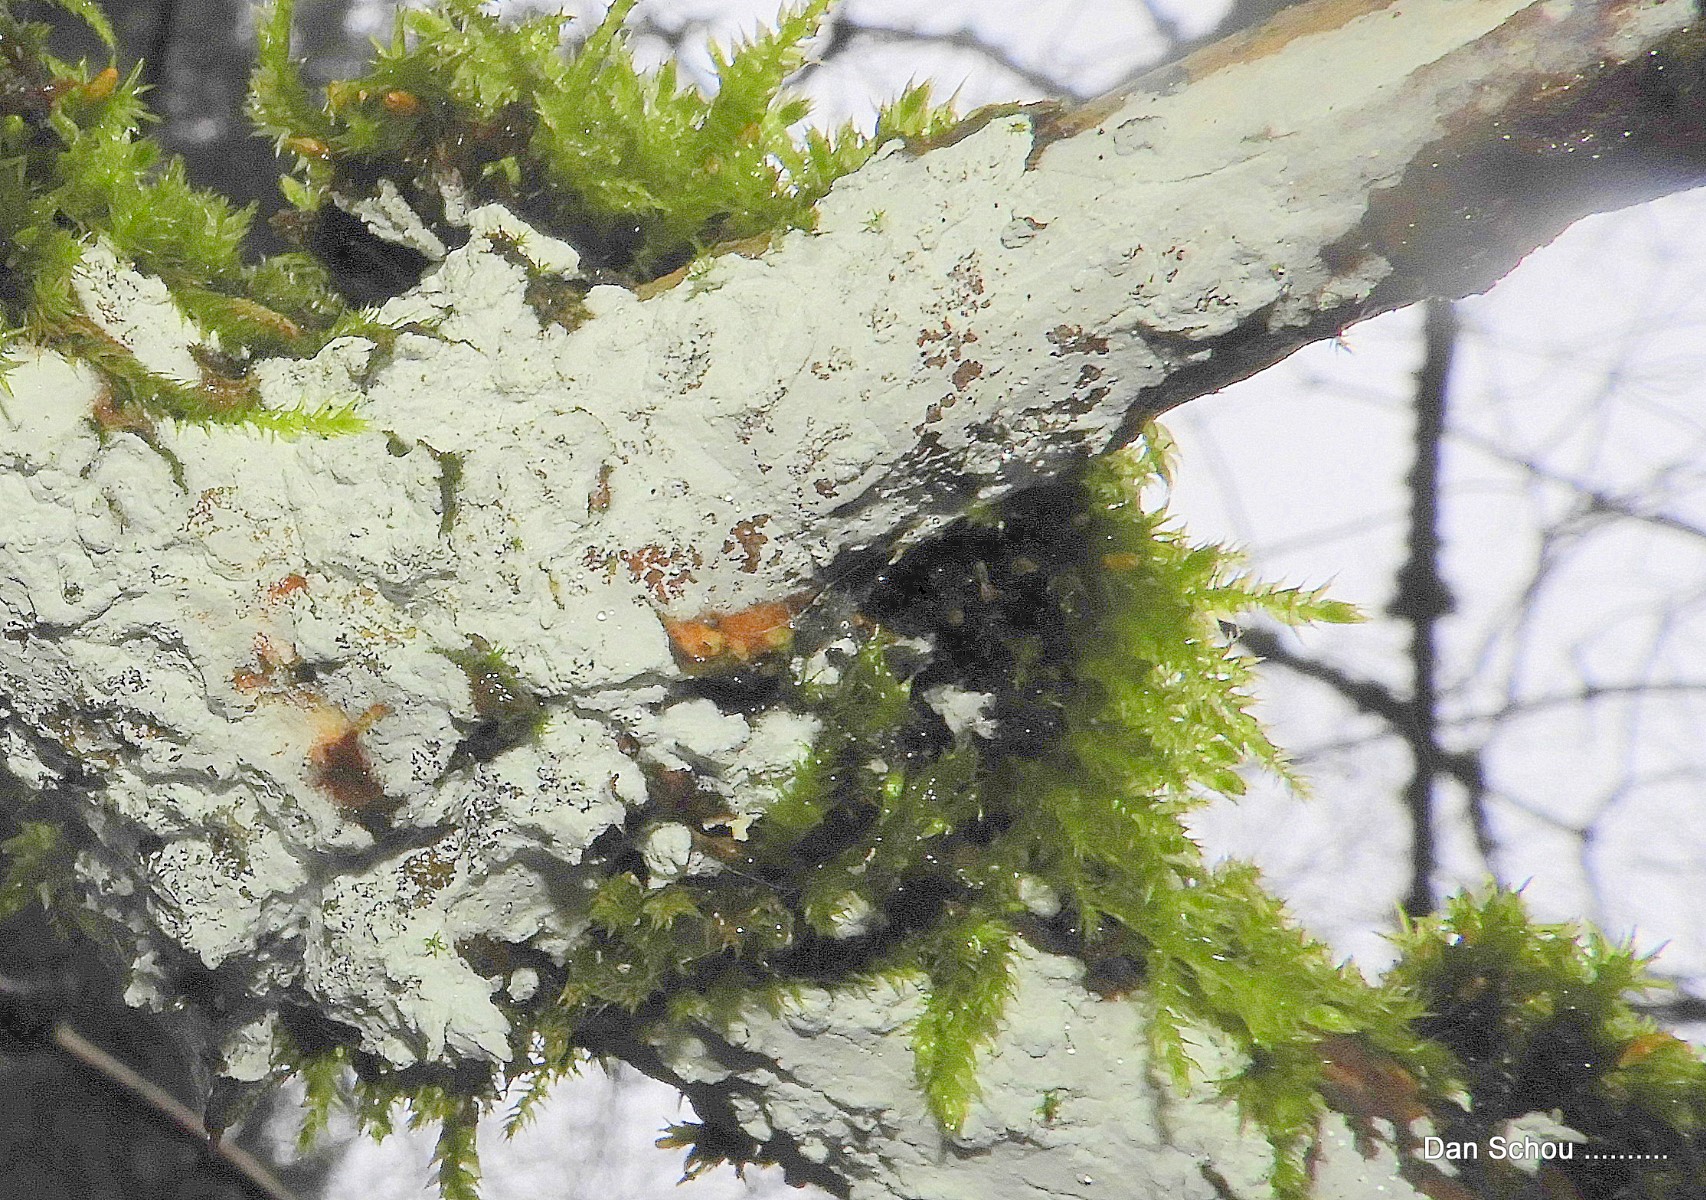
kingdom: Fungi
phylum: Basidiomycota
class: Agaricomycetes
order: Corticiales
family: Corticiaceae
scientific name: Corticiaceae
